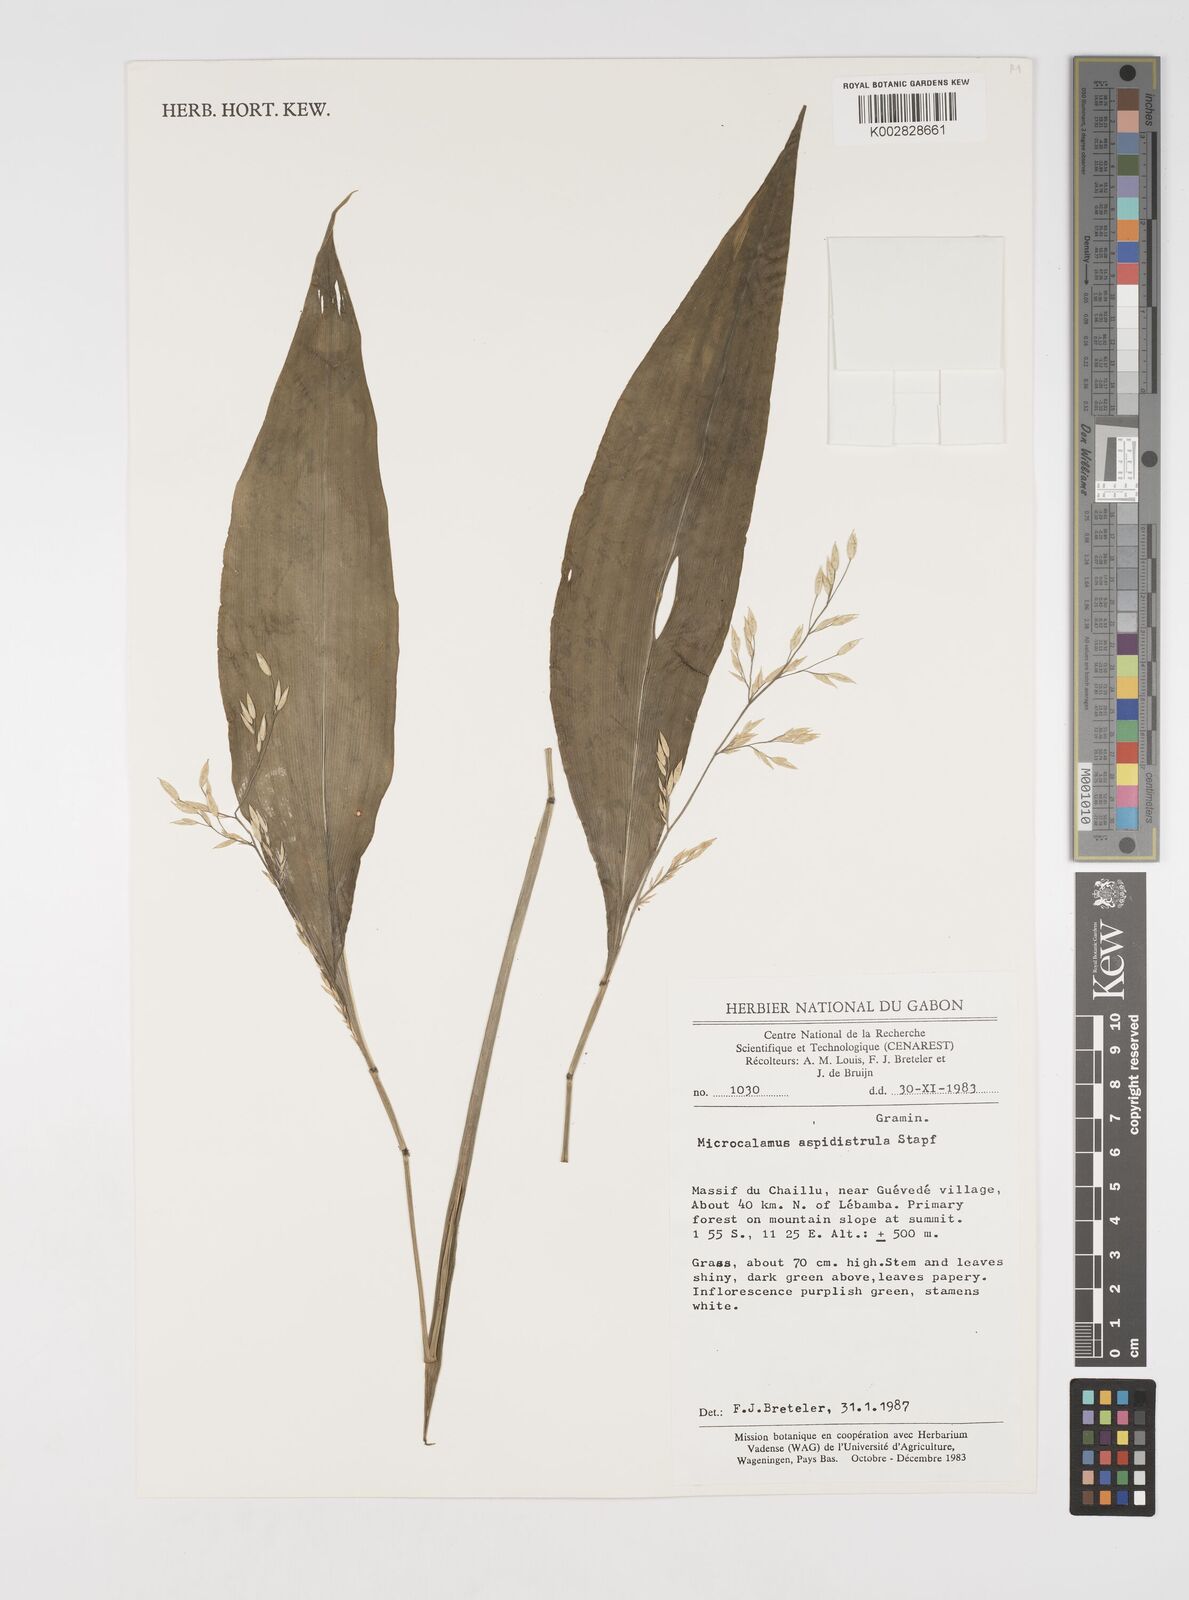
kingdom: Plantae
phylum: Tracheophyta
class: Liliopsida
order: Poales
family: Poaceae
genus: Microcalamus
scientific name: Microcalamus barbinodis
